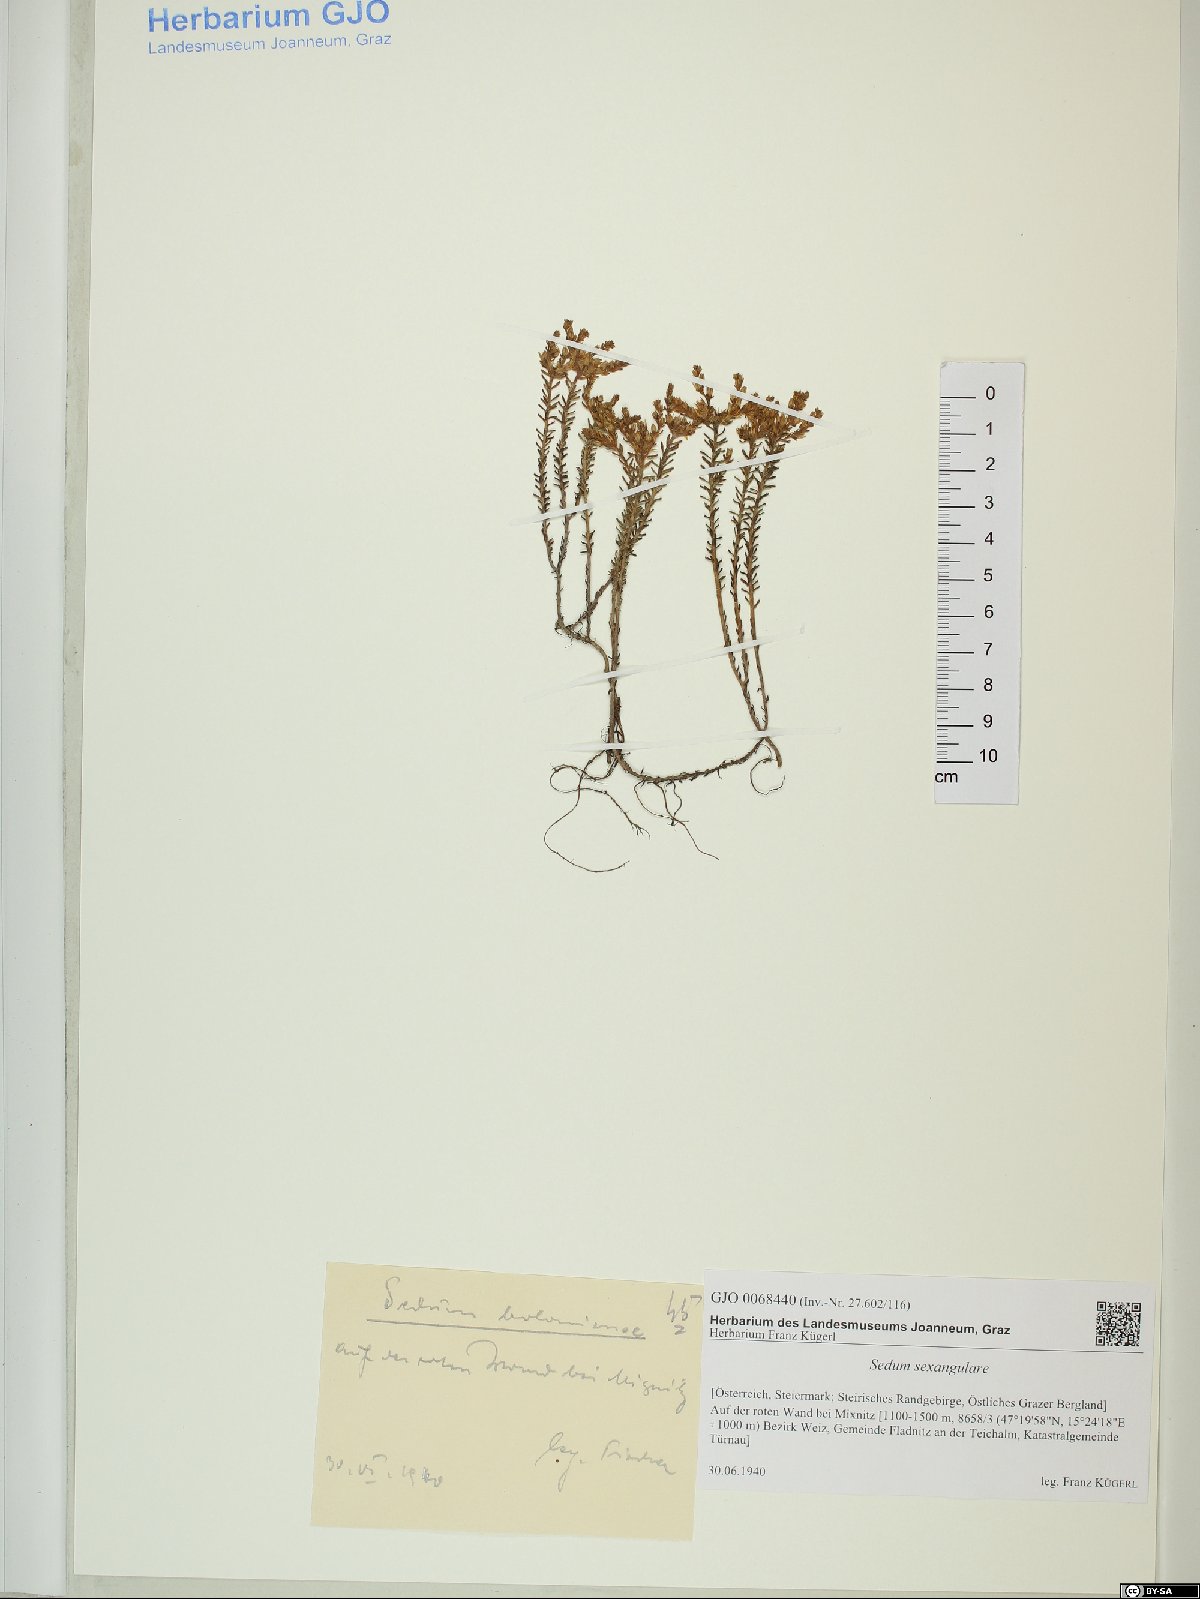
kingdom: Plantae
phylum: Tracheophyta
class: Magnoliopsida
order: Saxifragales
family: Crassulaceae
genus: Sedum
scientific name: Sedum sexangulare
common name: Tasteless stonecrop
